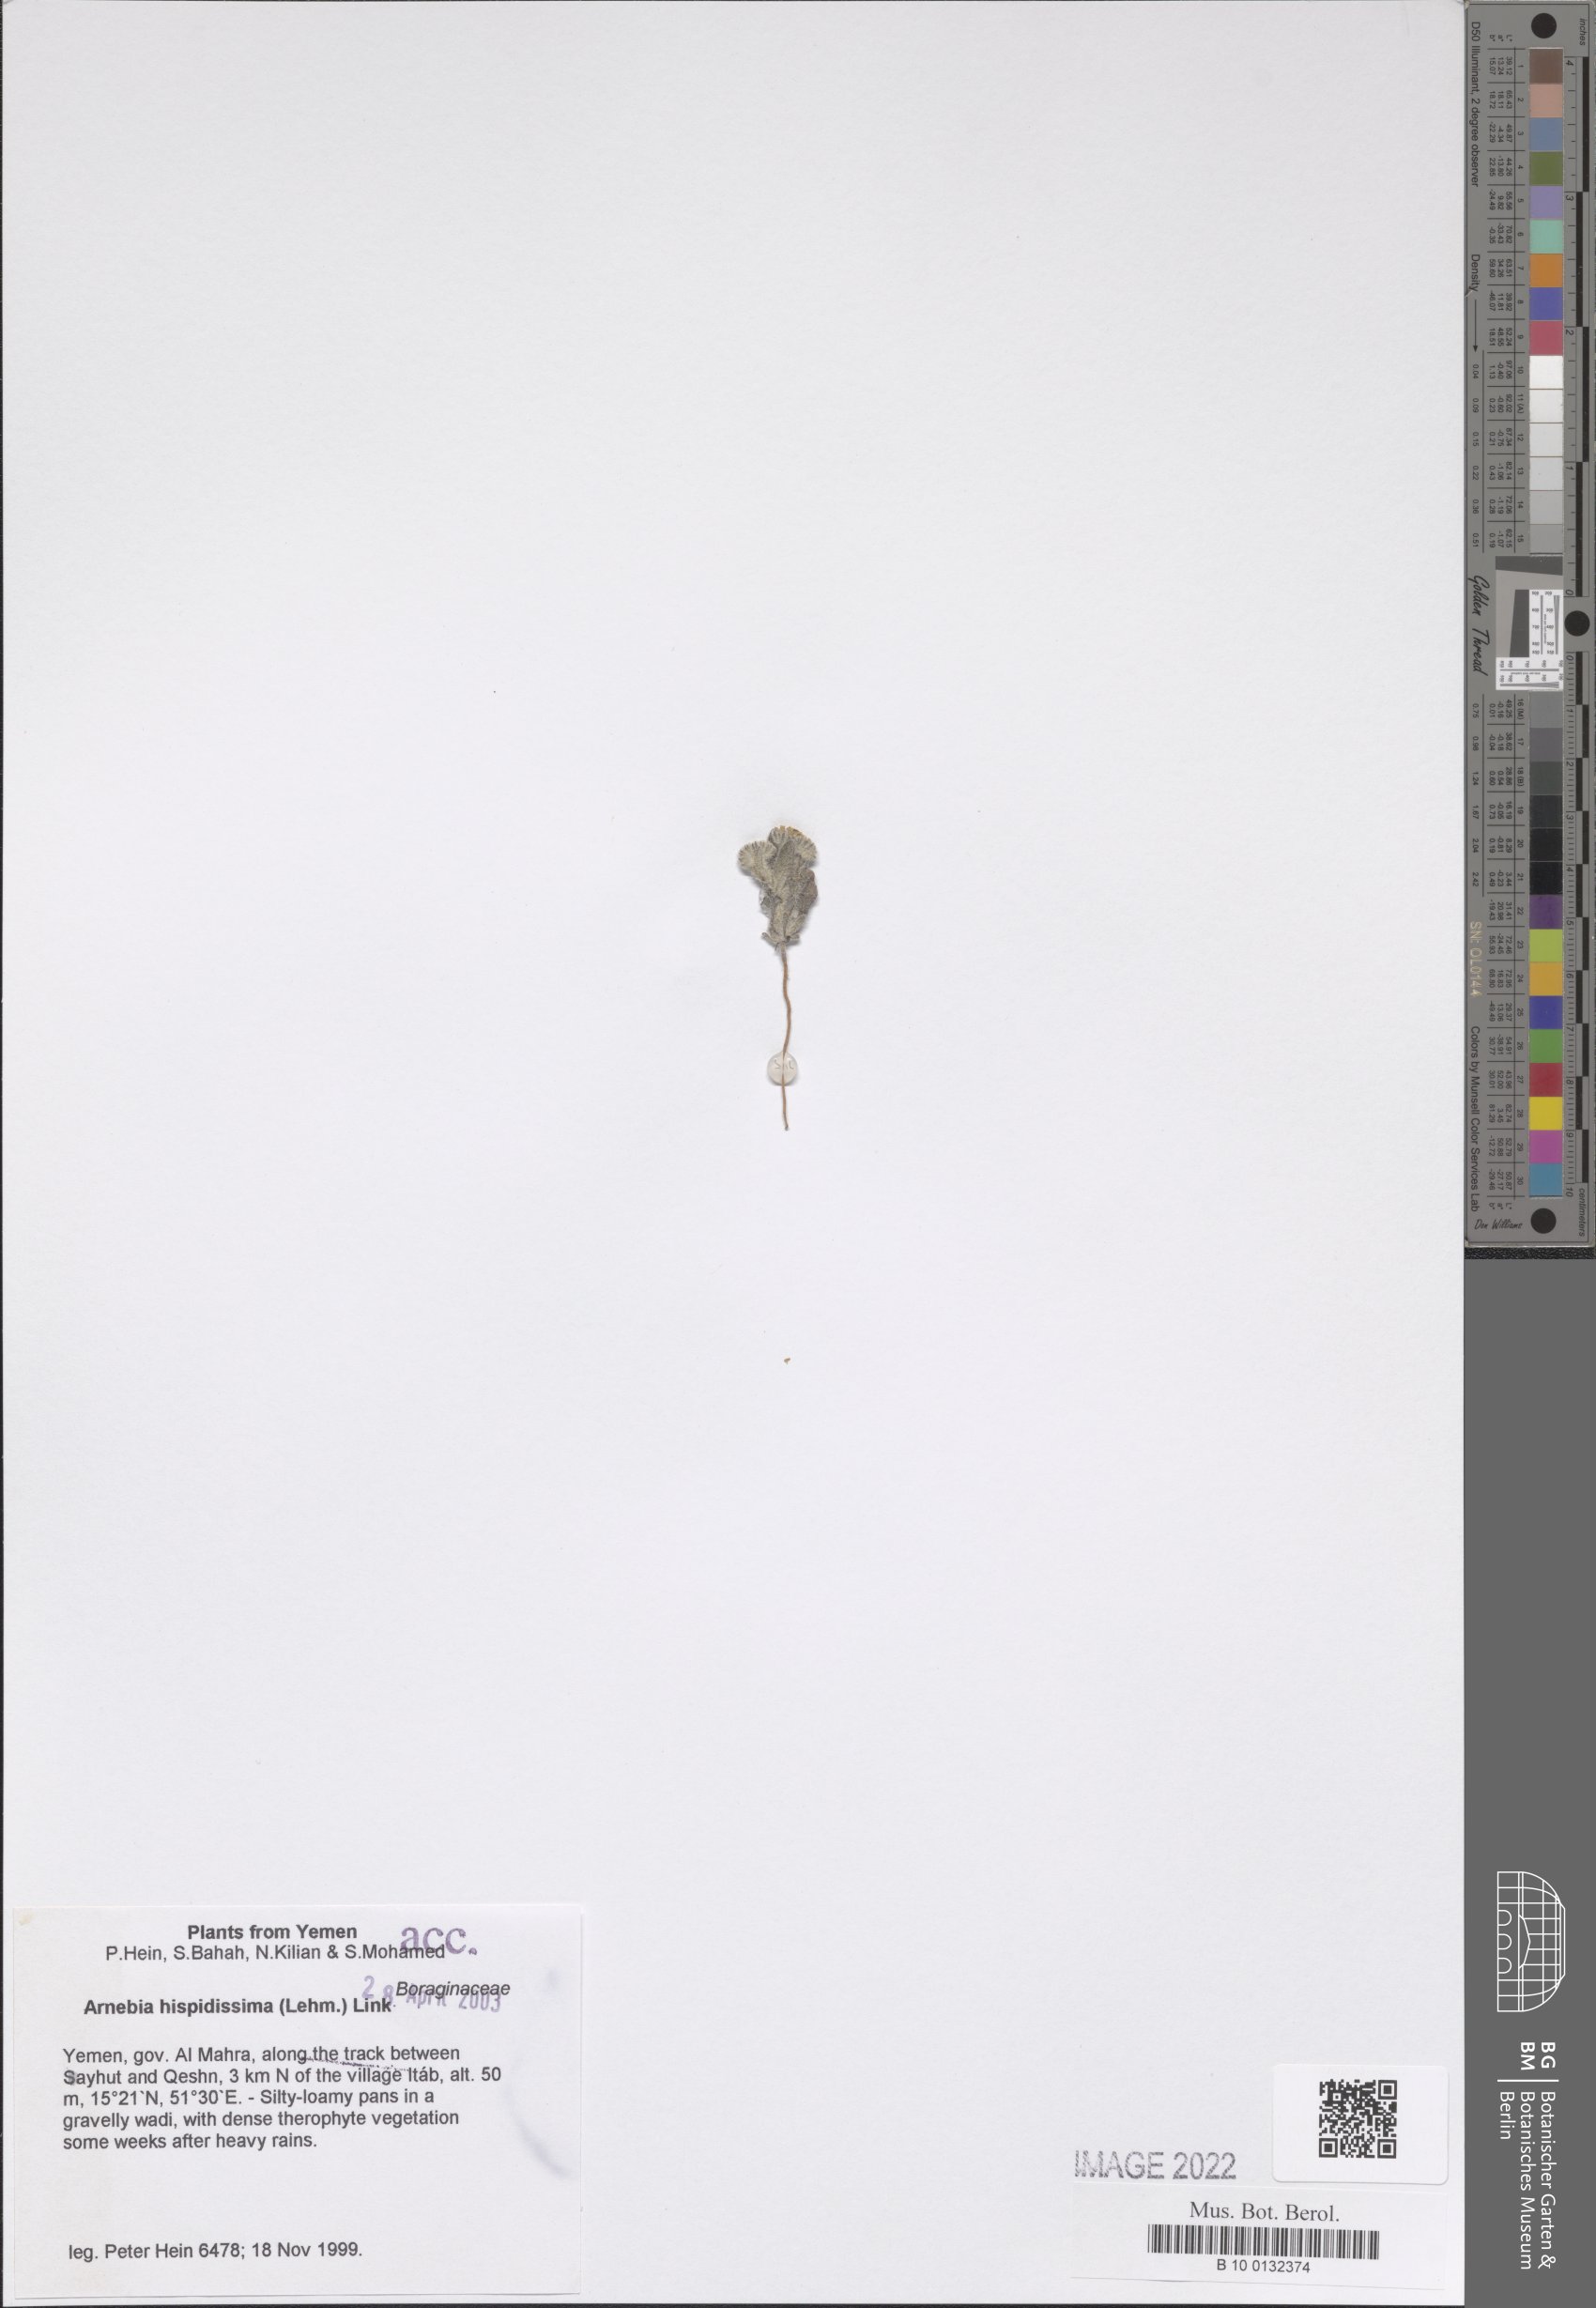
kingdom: Plantae
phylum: Tracheophyta
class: Magnoliopsida
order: Boraginales
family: Boraginaceae
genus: Arnebia
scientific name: Arnebia hispidissima
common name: Arabian-primrose
